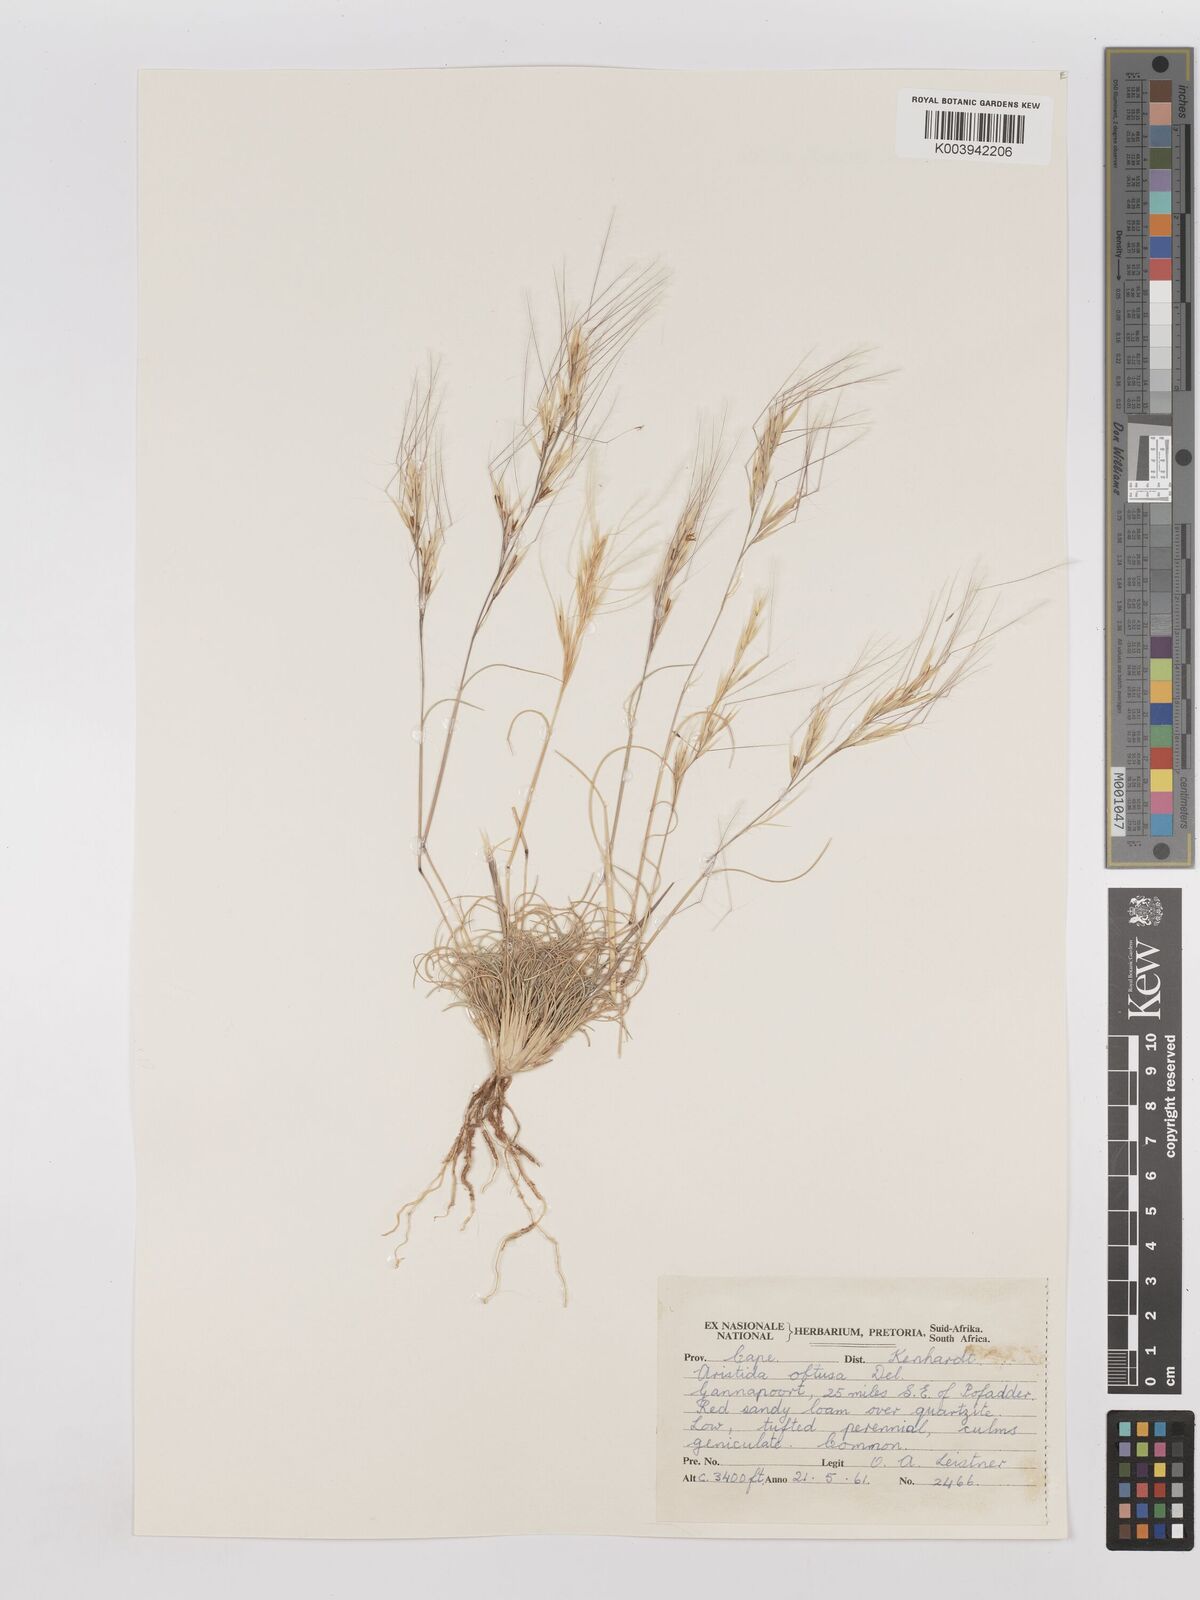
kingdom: Plantae
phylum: Tracheophyta
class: Liliopsida
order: Poales
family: Poaceae
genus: Stipagrostis
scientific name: Stipagrostis obtusa
